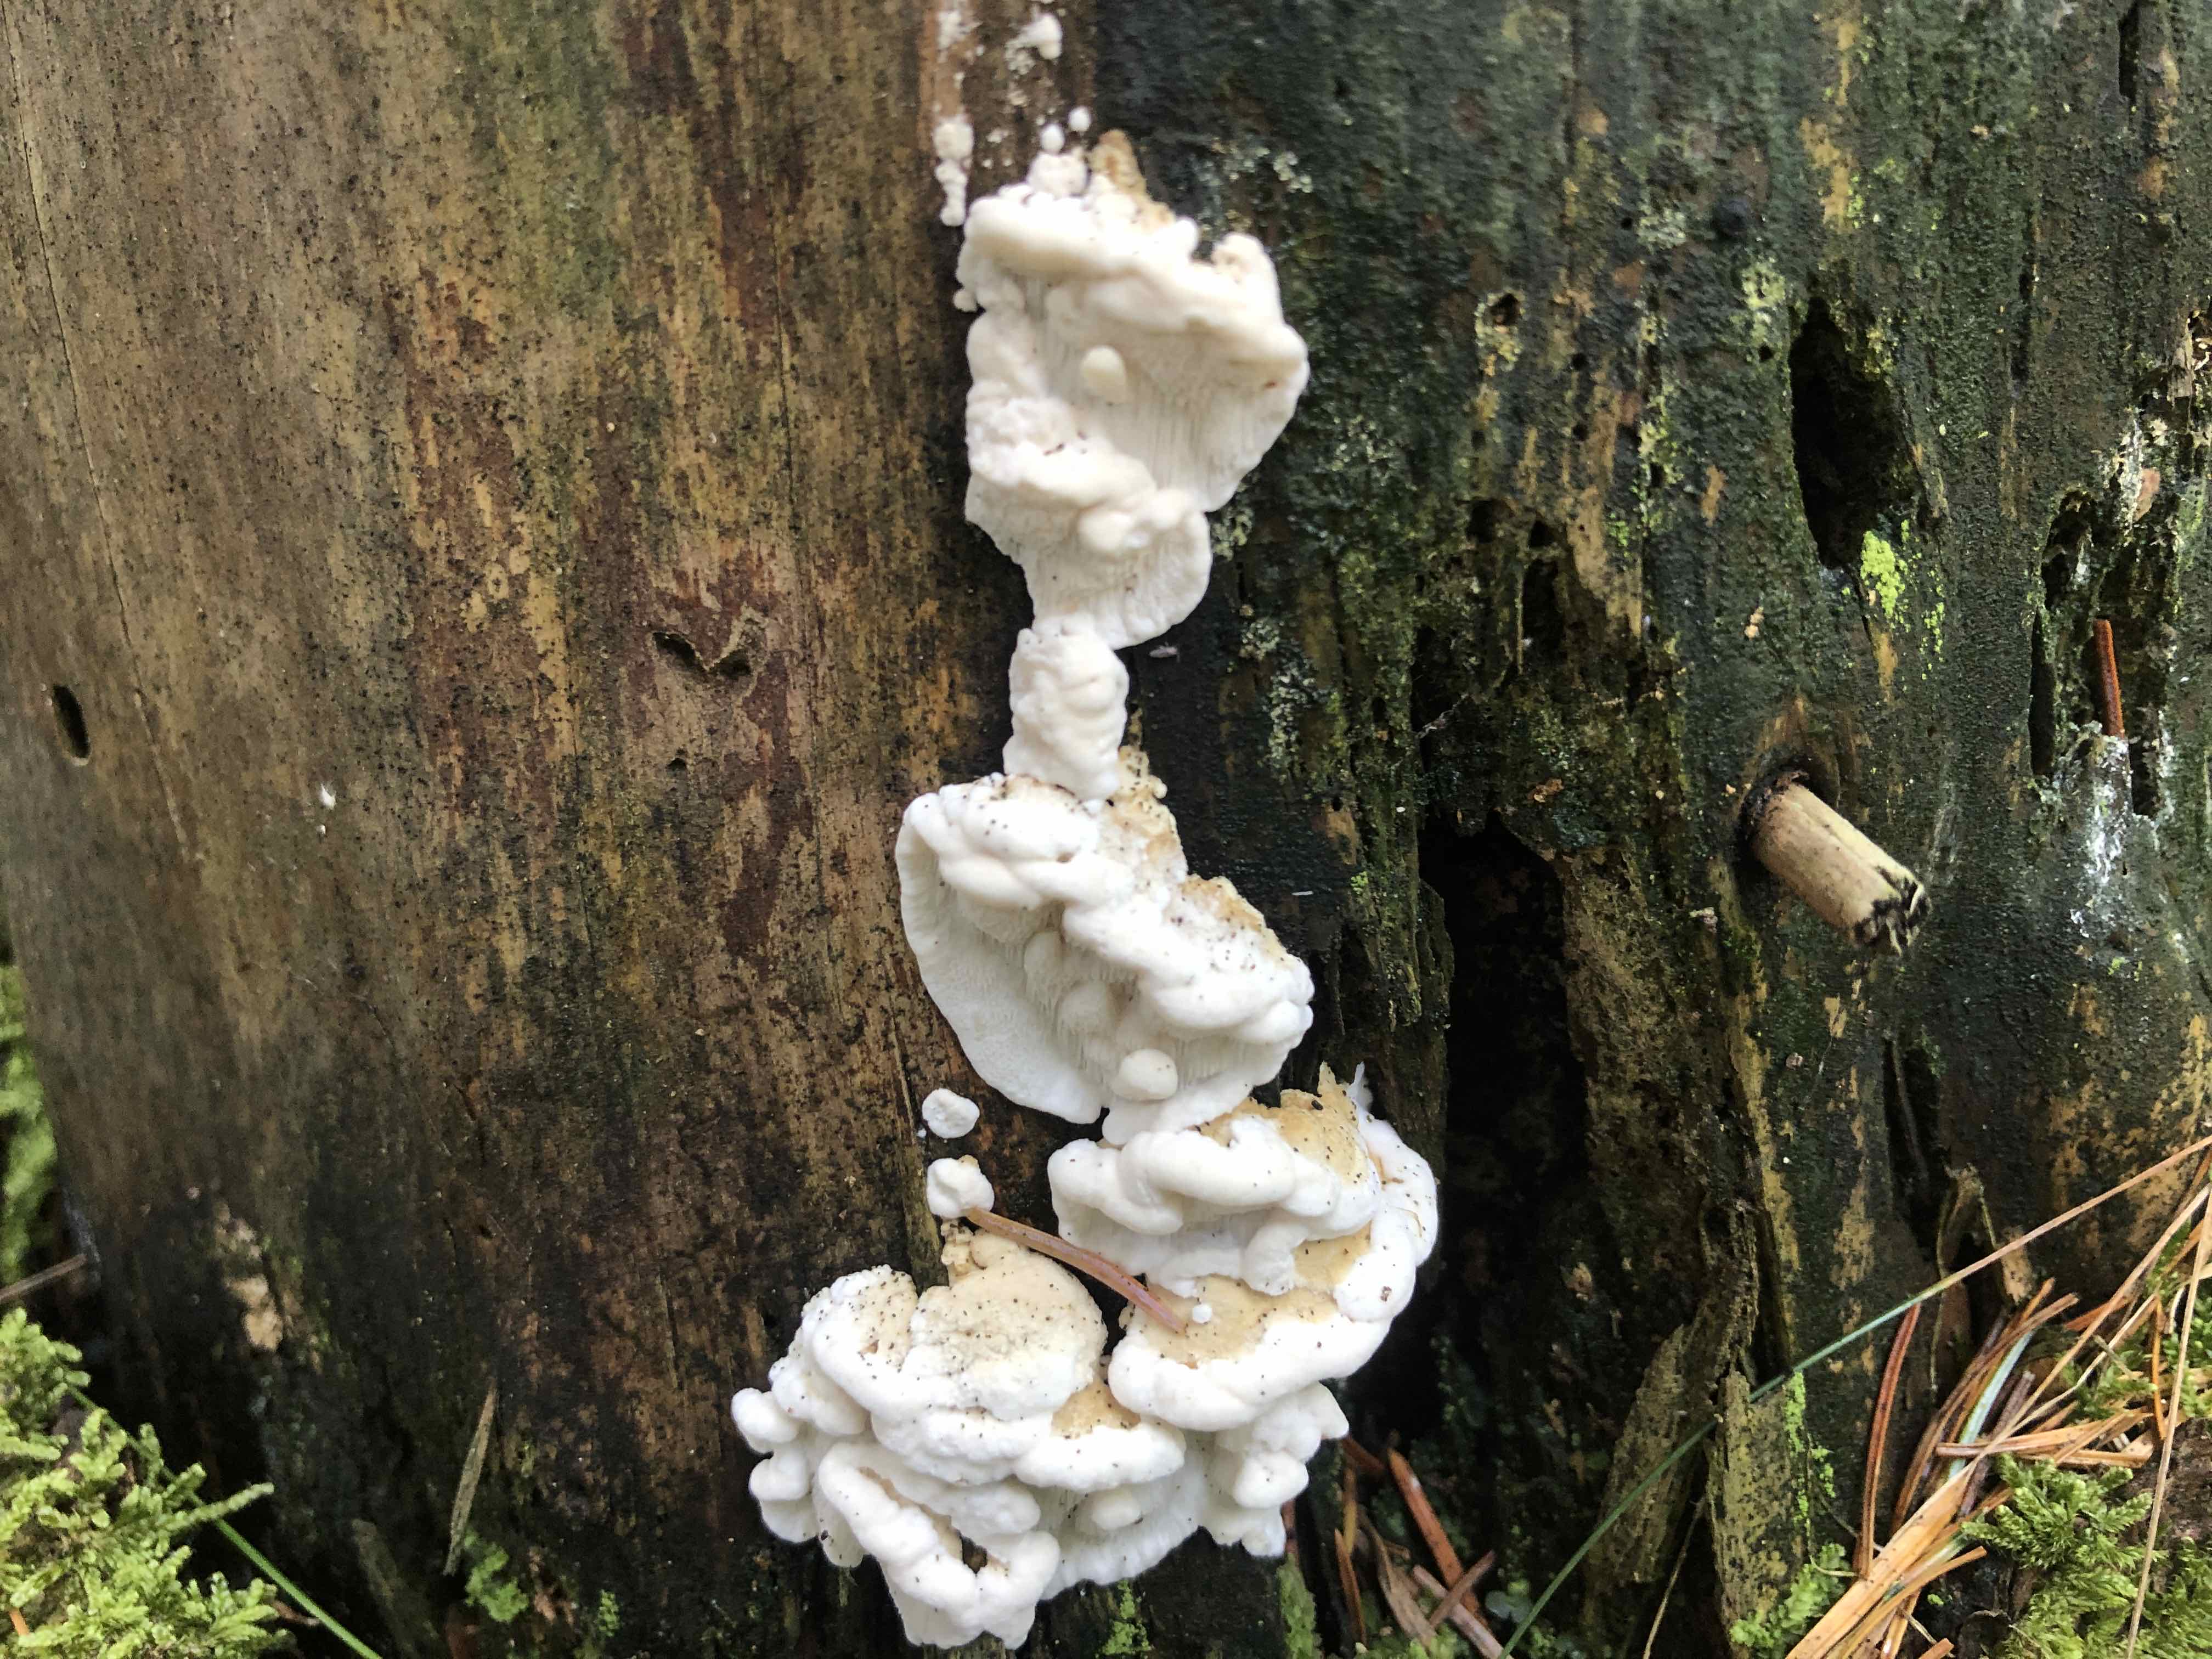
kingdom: Fungi
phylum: Basidiomycota
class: Agaricomycetes
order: Polyporales
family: Fomitopsidaceae
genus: Neoantrodia
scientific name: Neoantrodia serialis
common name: række-sejporesvamp
